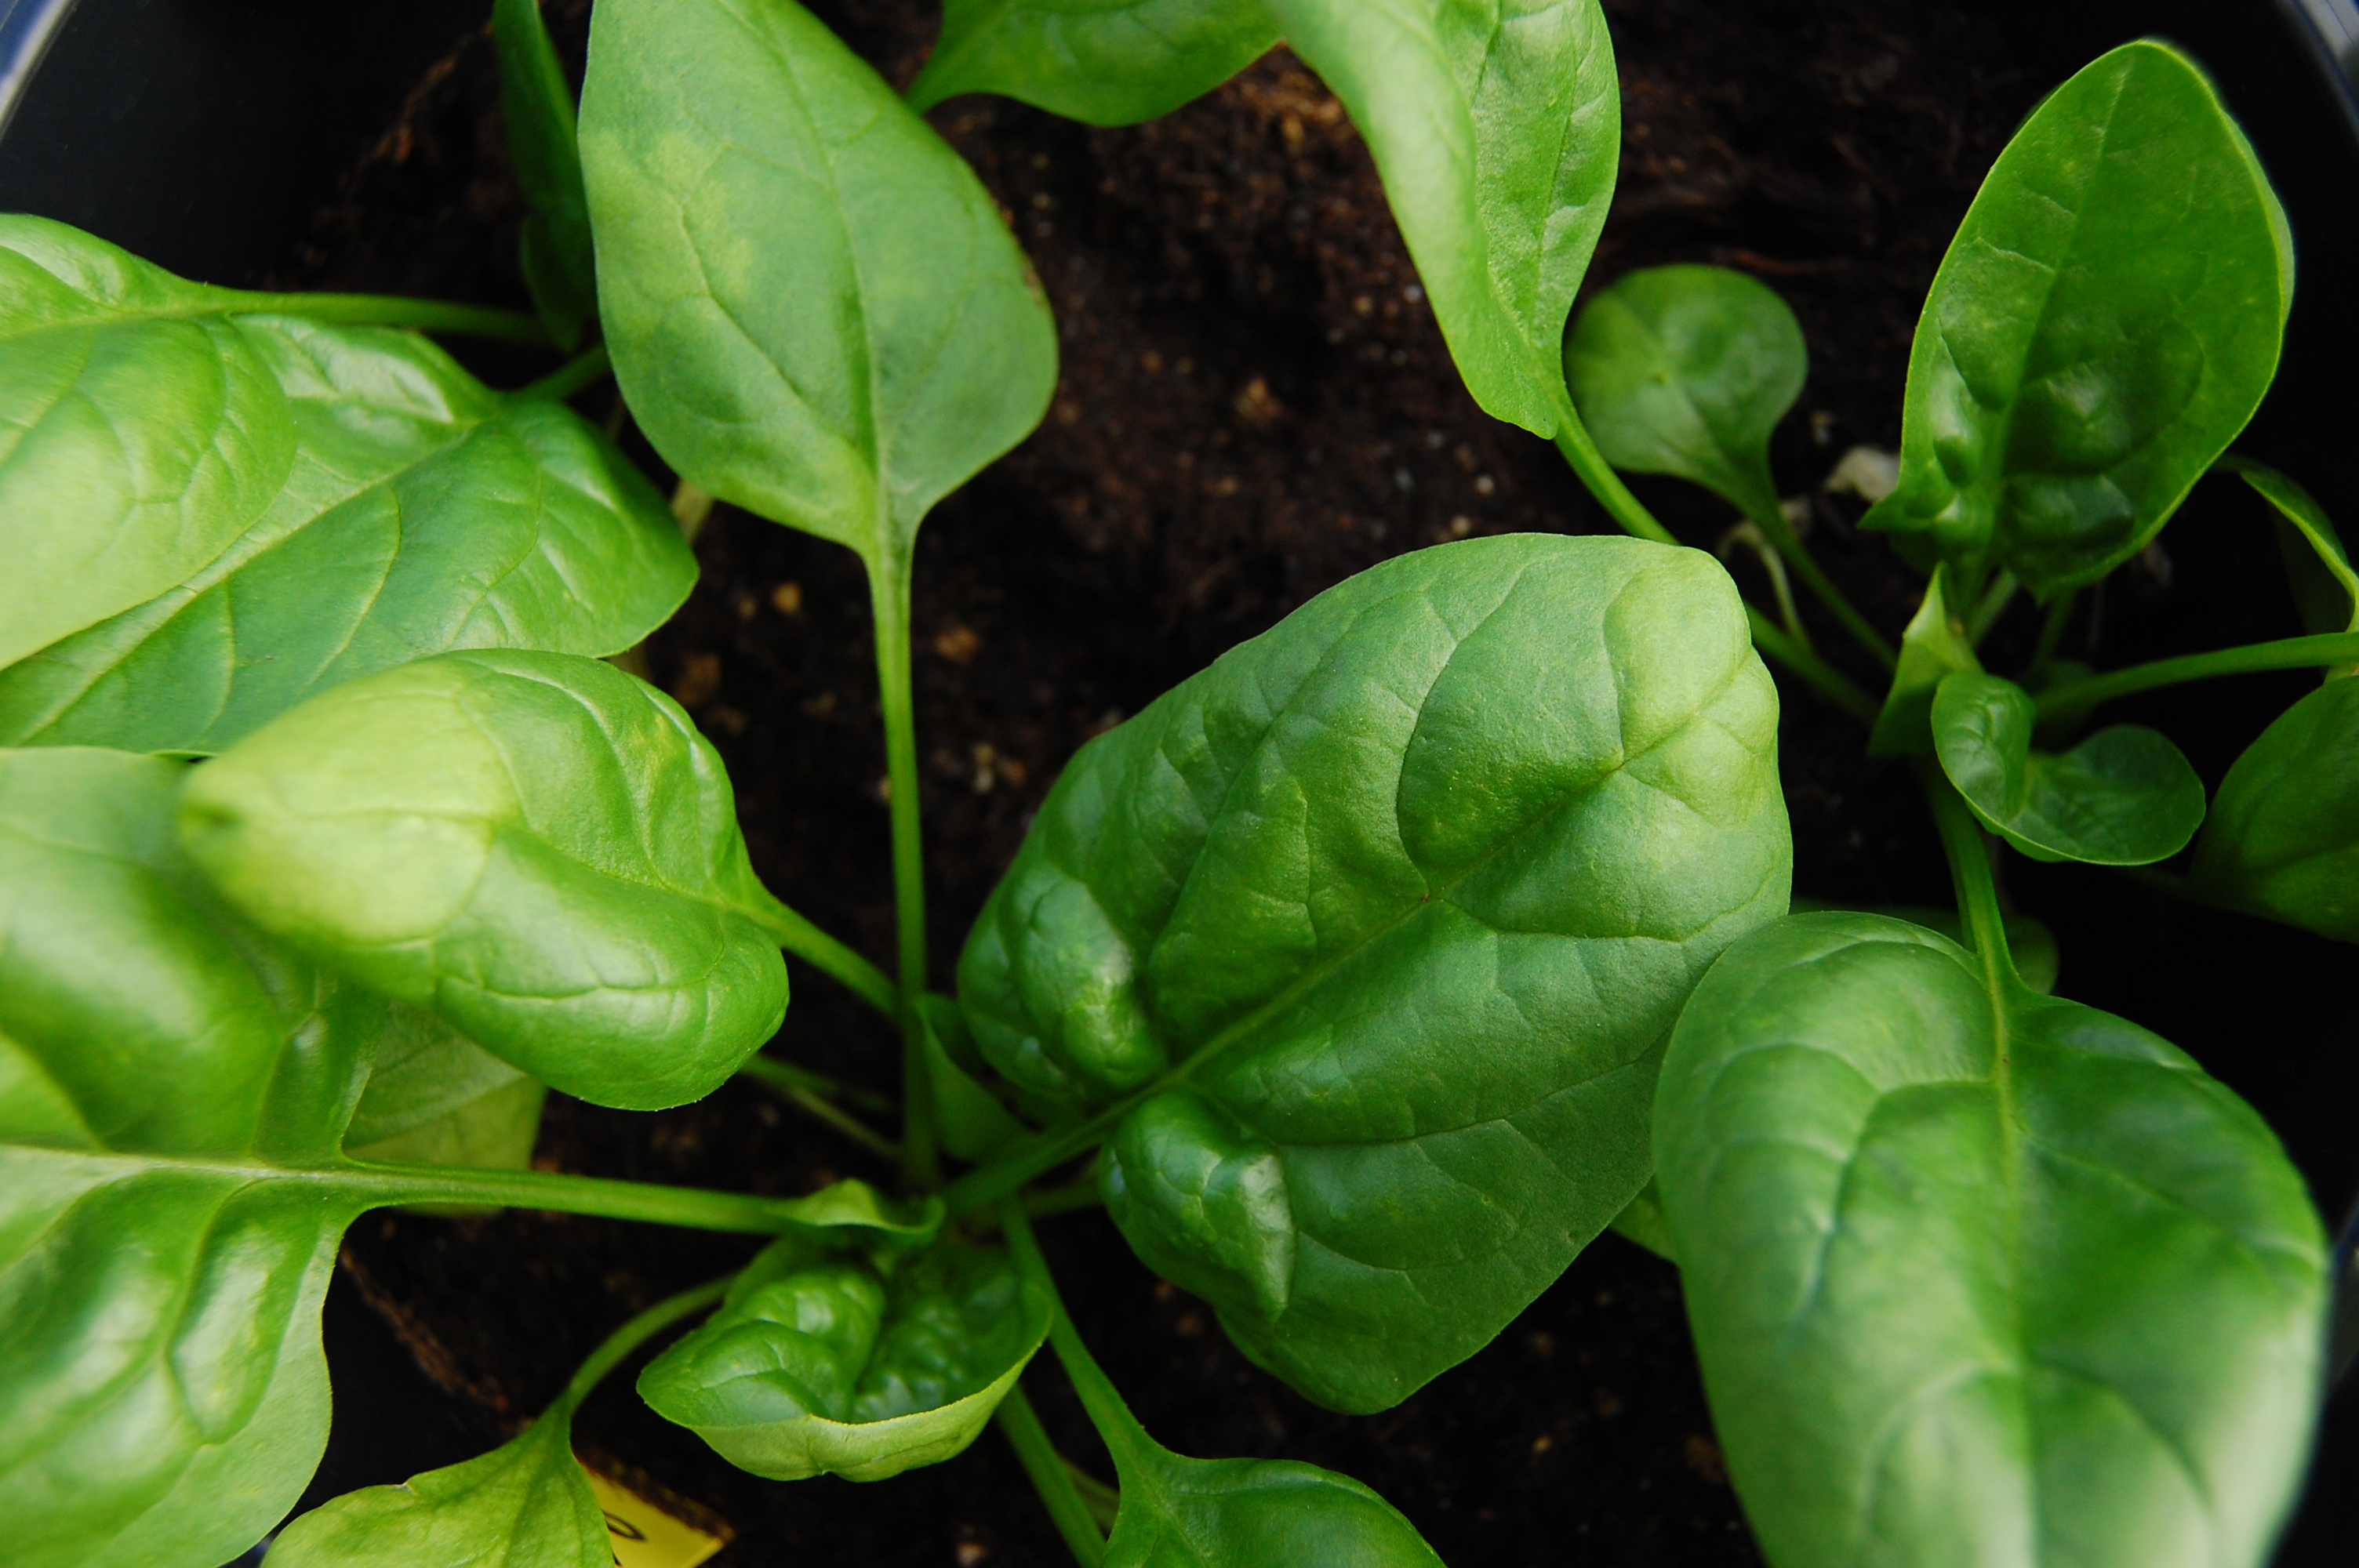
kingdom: Plantae
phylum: Tracheophyta
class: Magnoliopsida
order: Caryophyllales
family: Amaranthaceae
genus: Spinacia
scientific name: Spinacia oleracea
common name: Spinach
